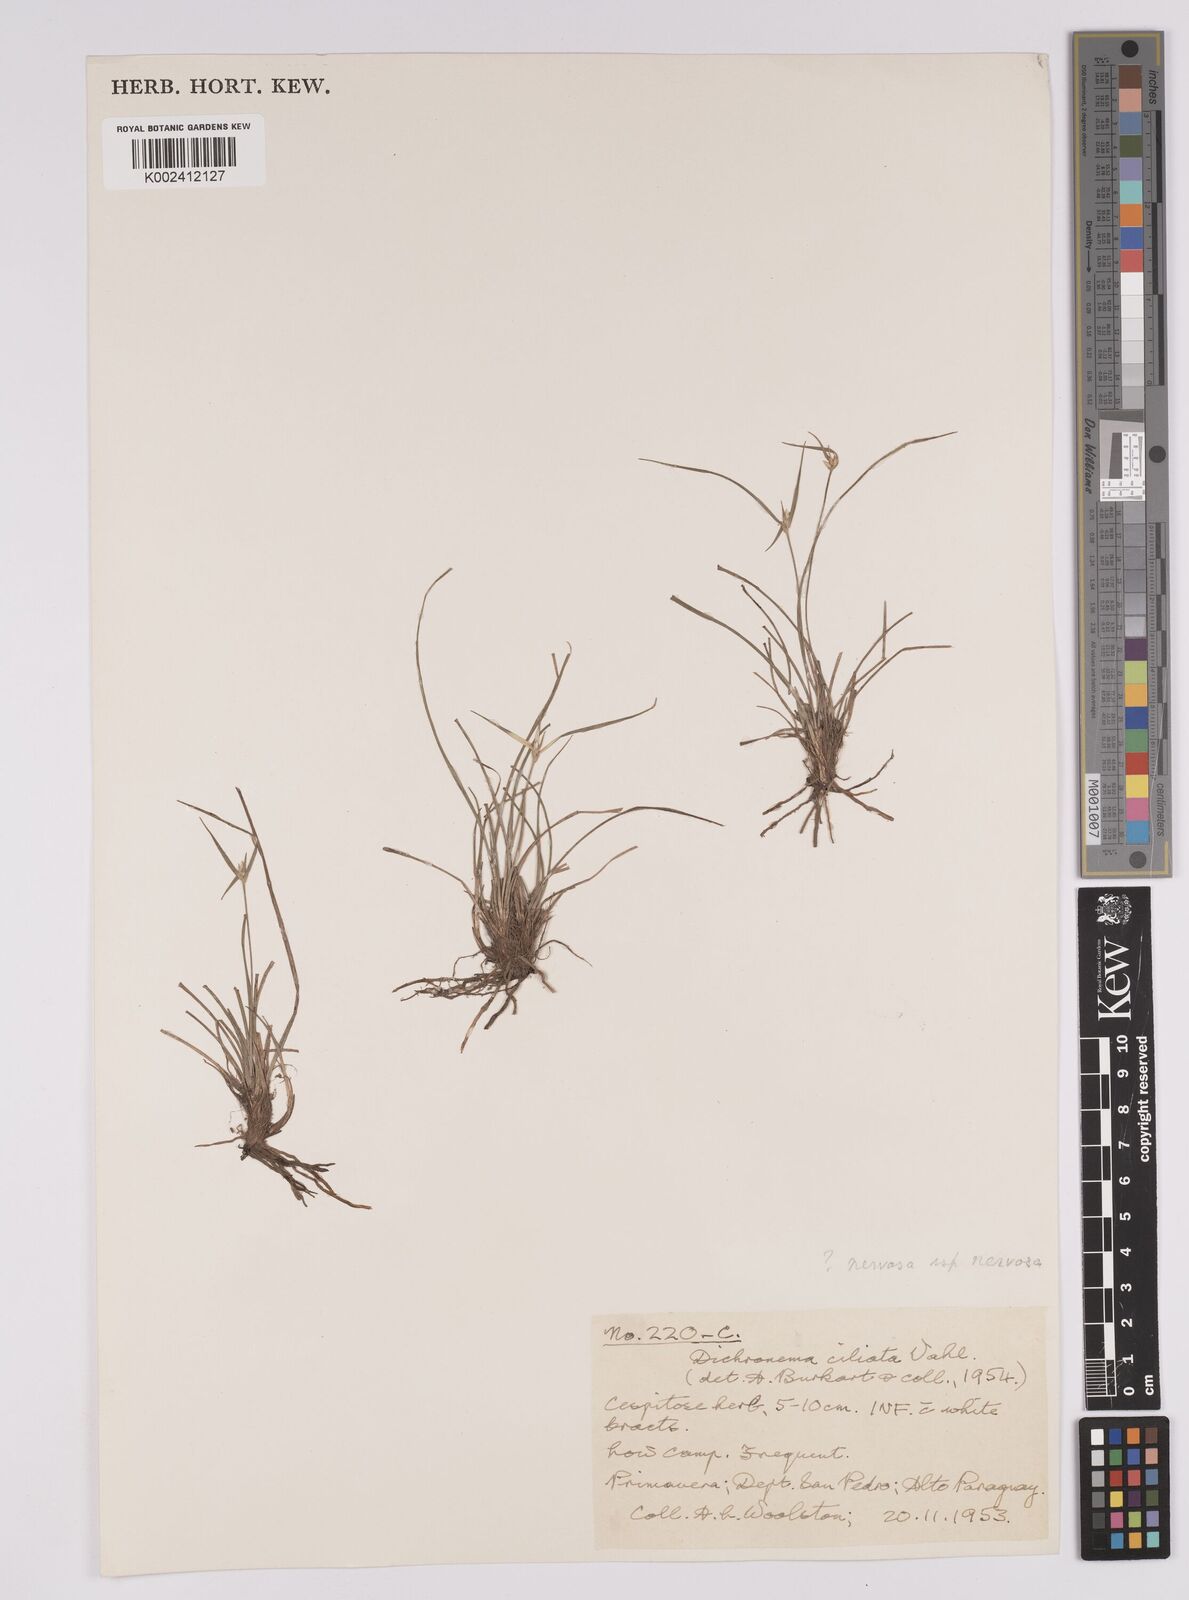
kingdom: Plantae
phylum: Tracheophyta
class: Liliopsida
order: Poales
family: Cyperaceae
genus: Rhynchospora
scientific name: Rhynchospora nervosa
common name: Star sedge
